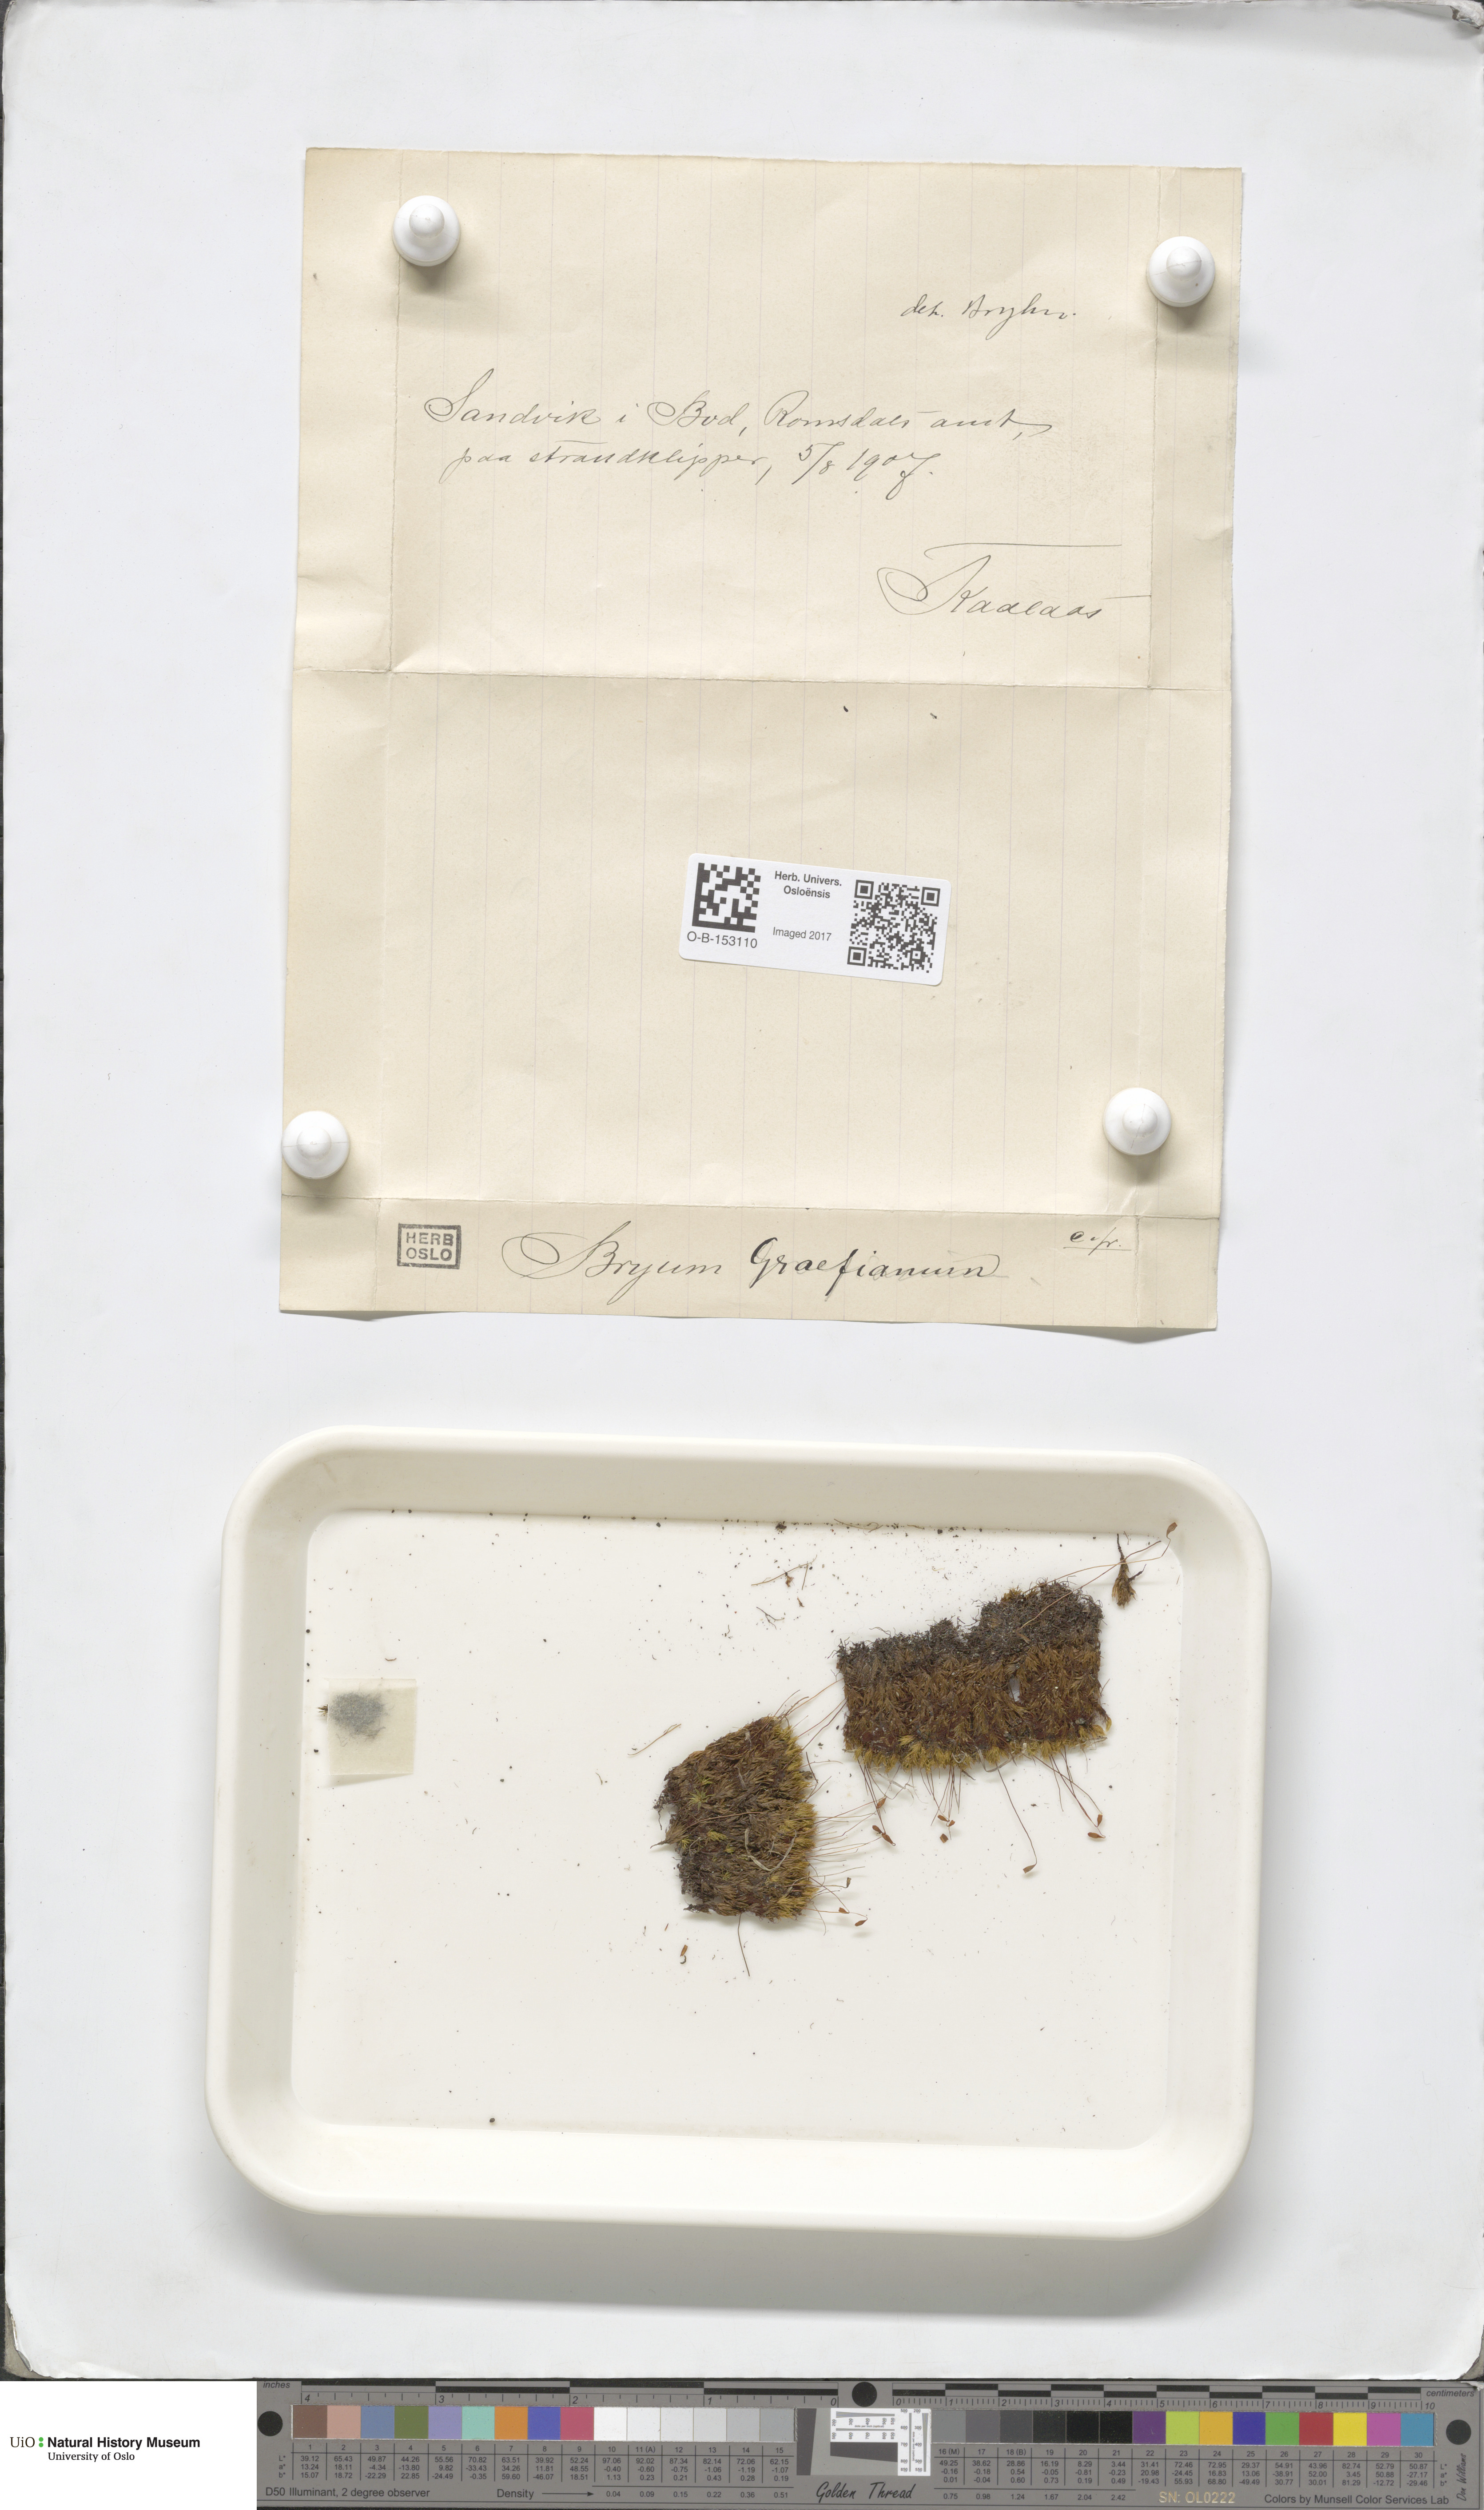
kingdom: Plantae
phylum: Bryophyta
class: Bryopsida
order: Bryales
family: Bryaceae
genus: Ptychostomum
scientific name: Ptychostomum inclinatum
